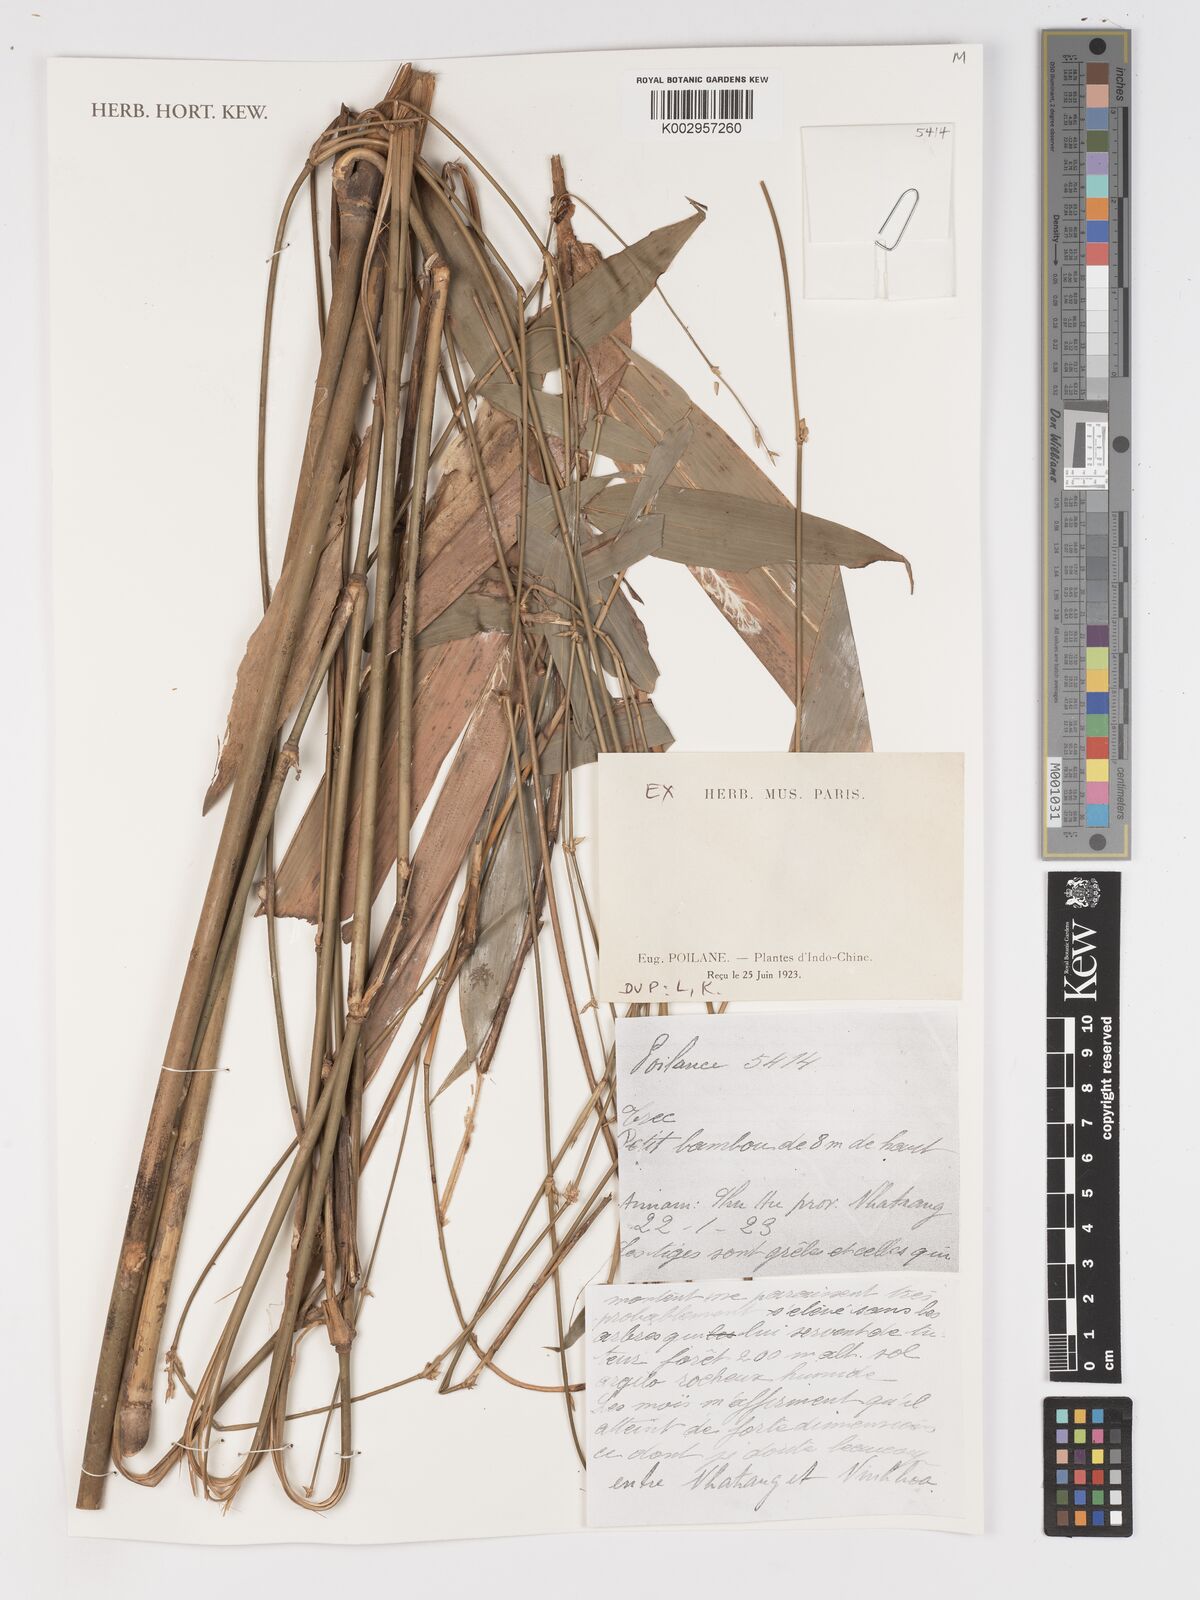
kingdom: Plantae
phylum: Tracheophyta
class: Liliopsida
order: Poales
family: Poaceae
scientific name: Poaceae
